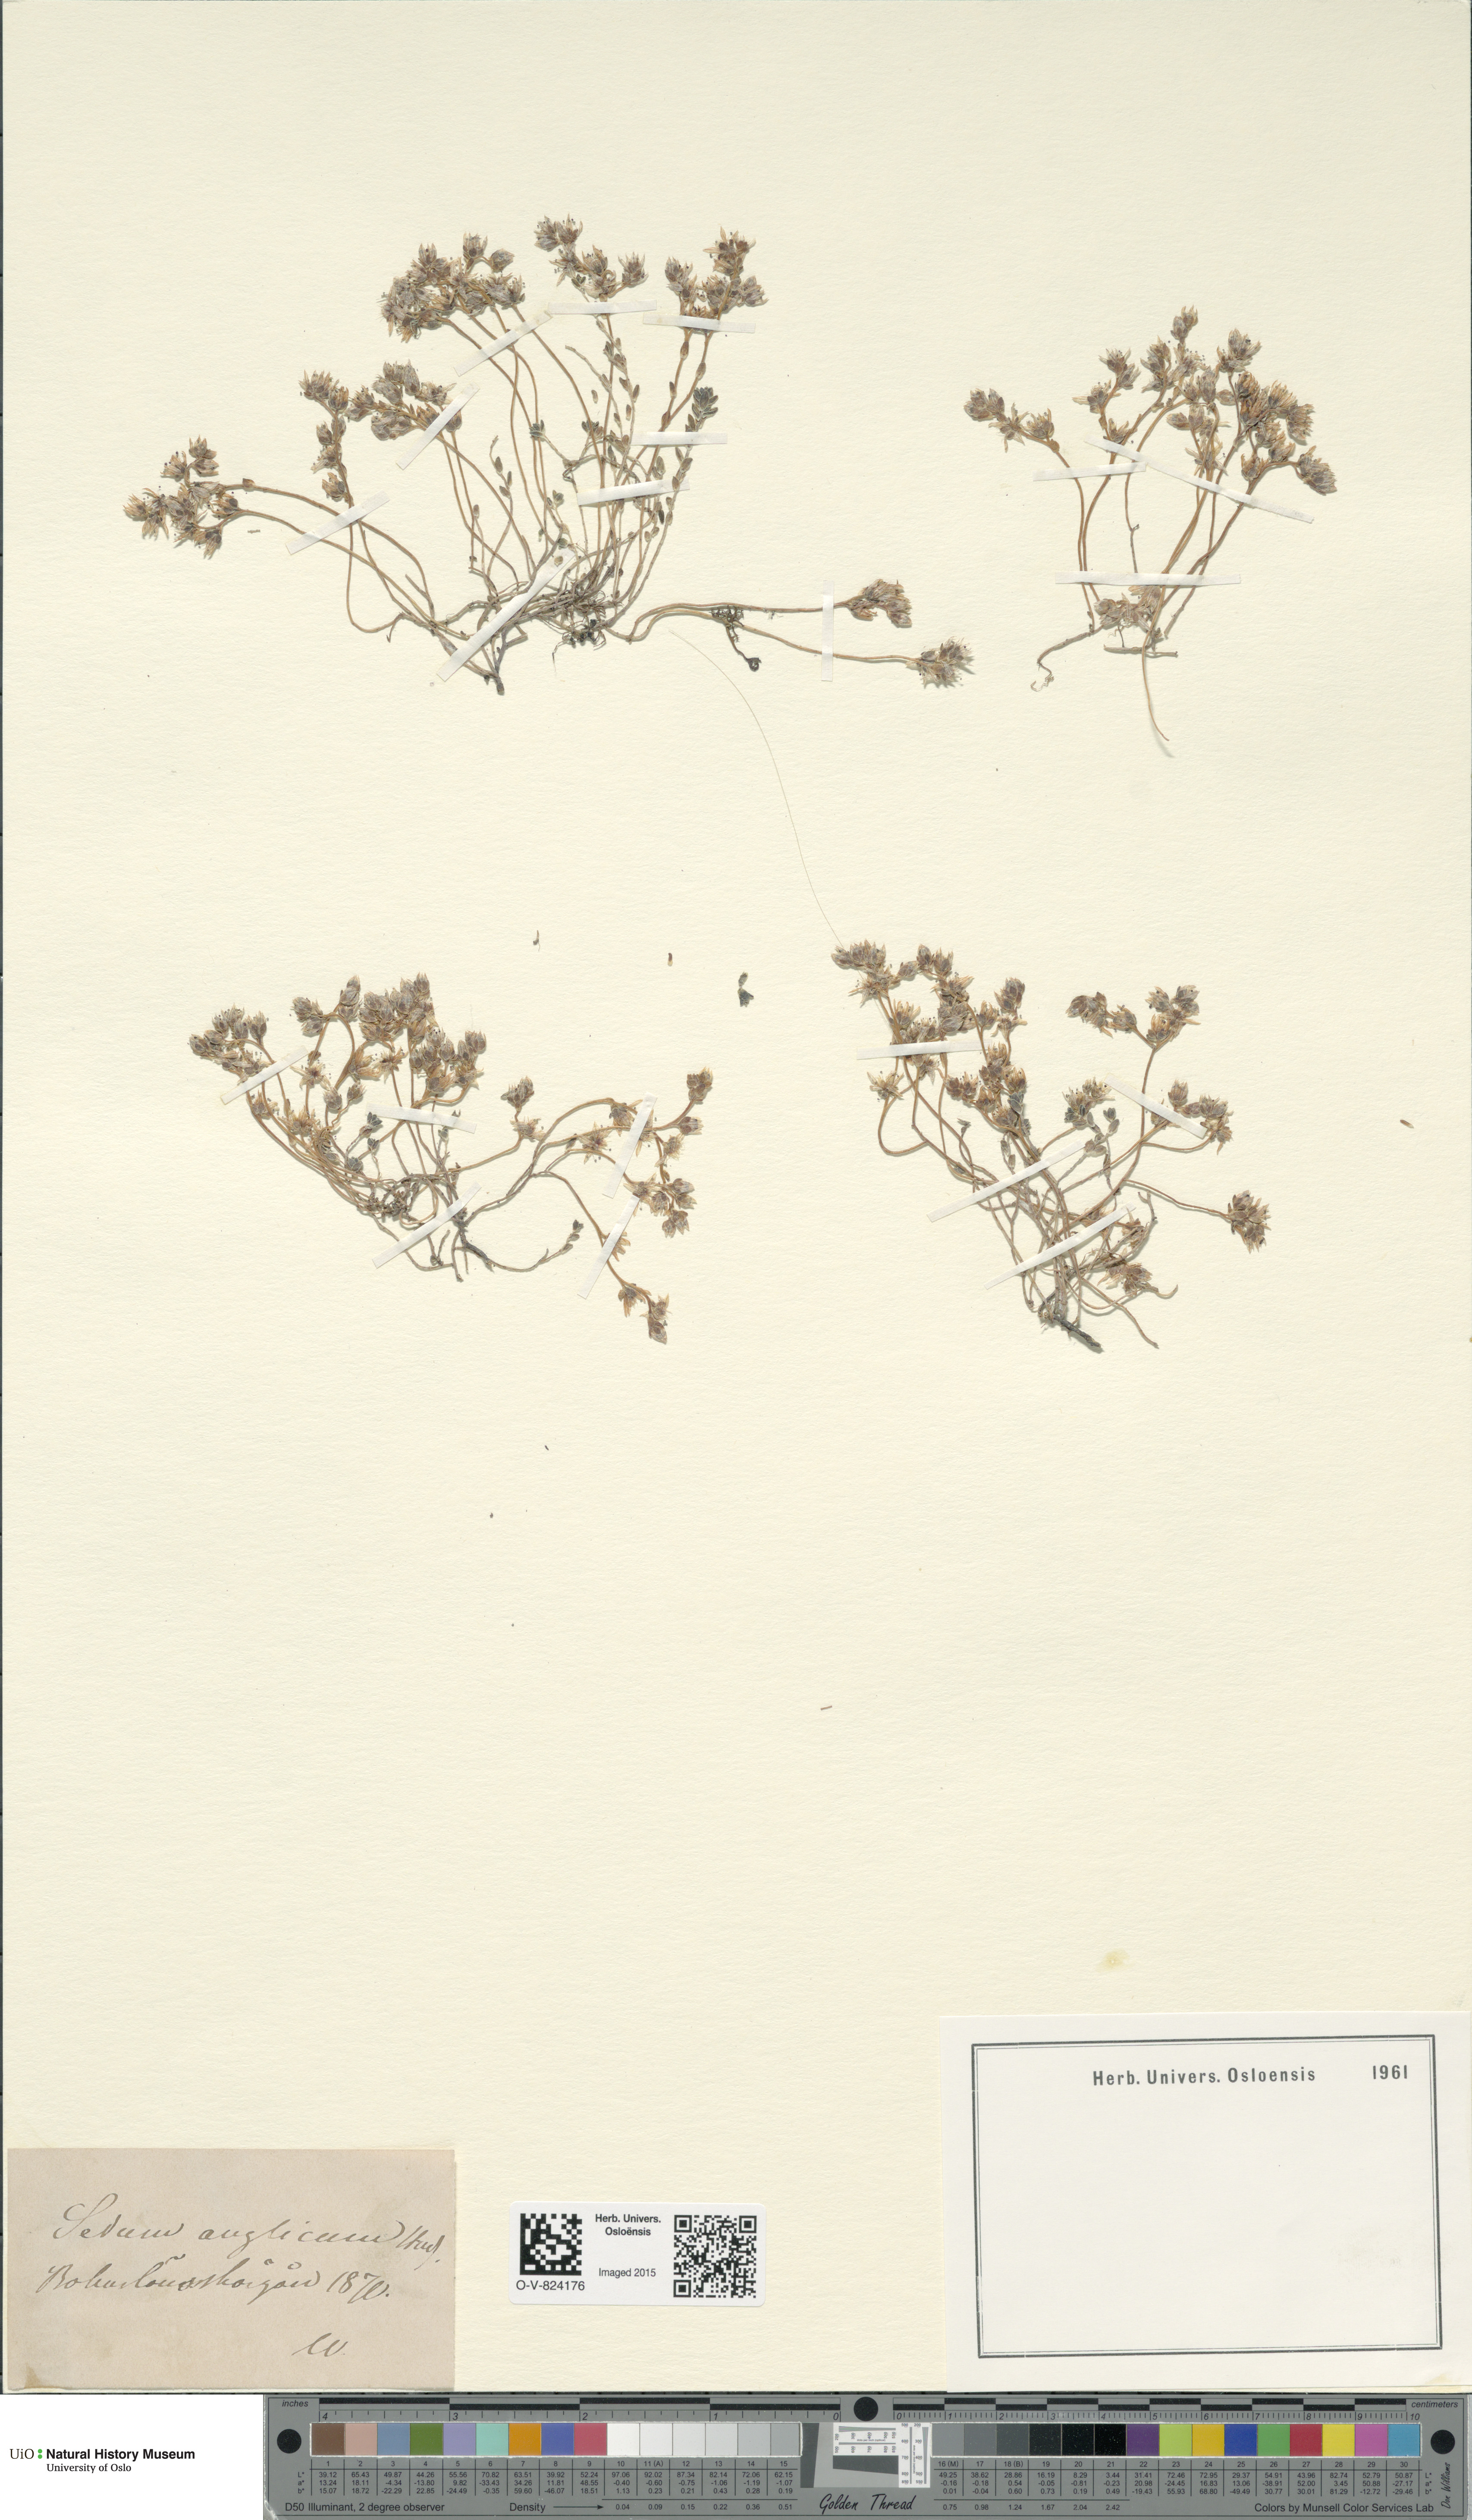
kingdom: Plantae
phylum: Tracheophyta
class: Magnoliopsida
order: Saxifragales
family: Crassulaceae
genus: Sedum
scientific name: Sedum anglicum
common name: English stonecrop
